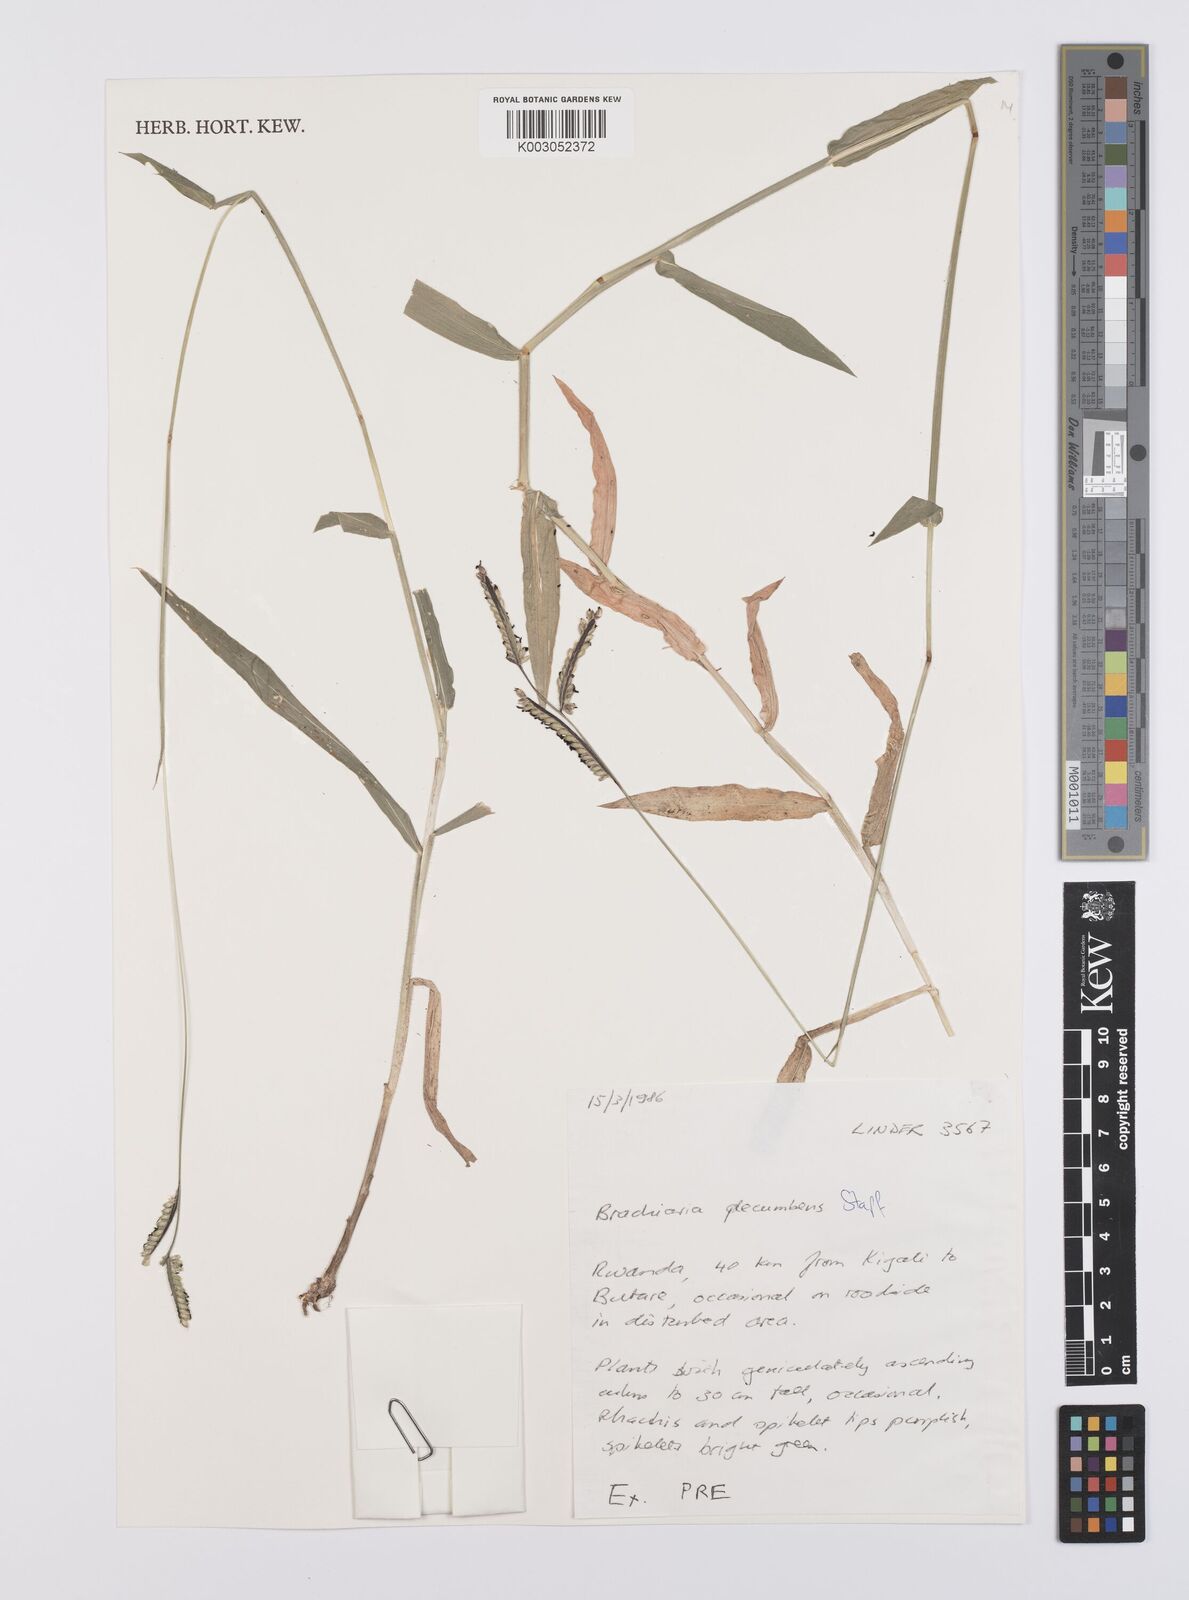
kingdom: Plantae
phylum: Tracheophyta
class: Liliopsida
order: Poales
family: Poaceae
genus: Urochloa
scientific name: Urochloa eminii
